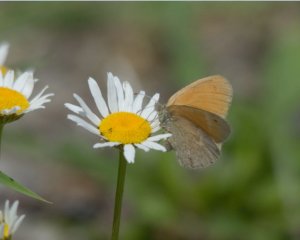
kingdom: Animalia
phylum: Arthropoda
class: Insecta
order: Lepidoptera
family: Nymphalidae
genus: Coenonympha
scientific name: Coenonympha tullia
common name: Large Heath
